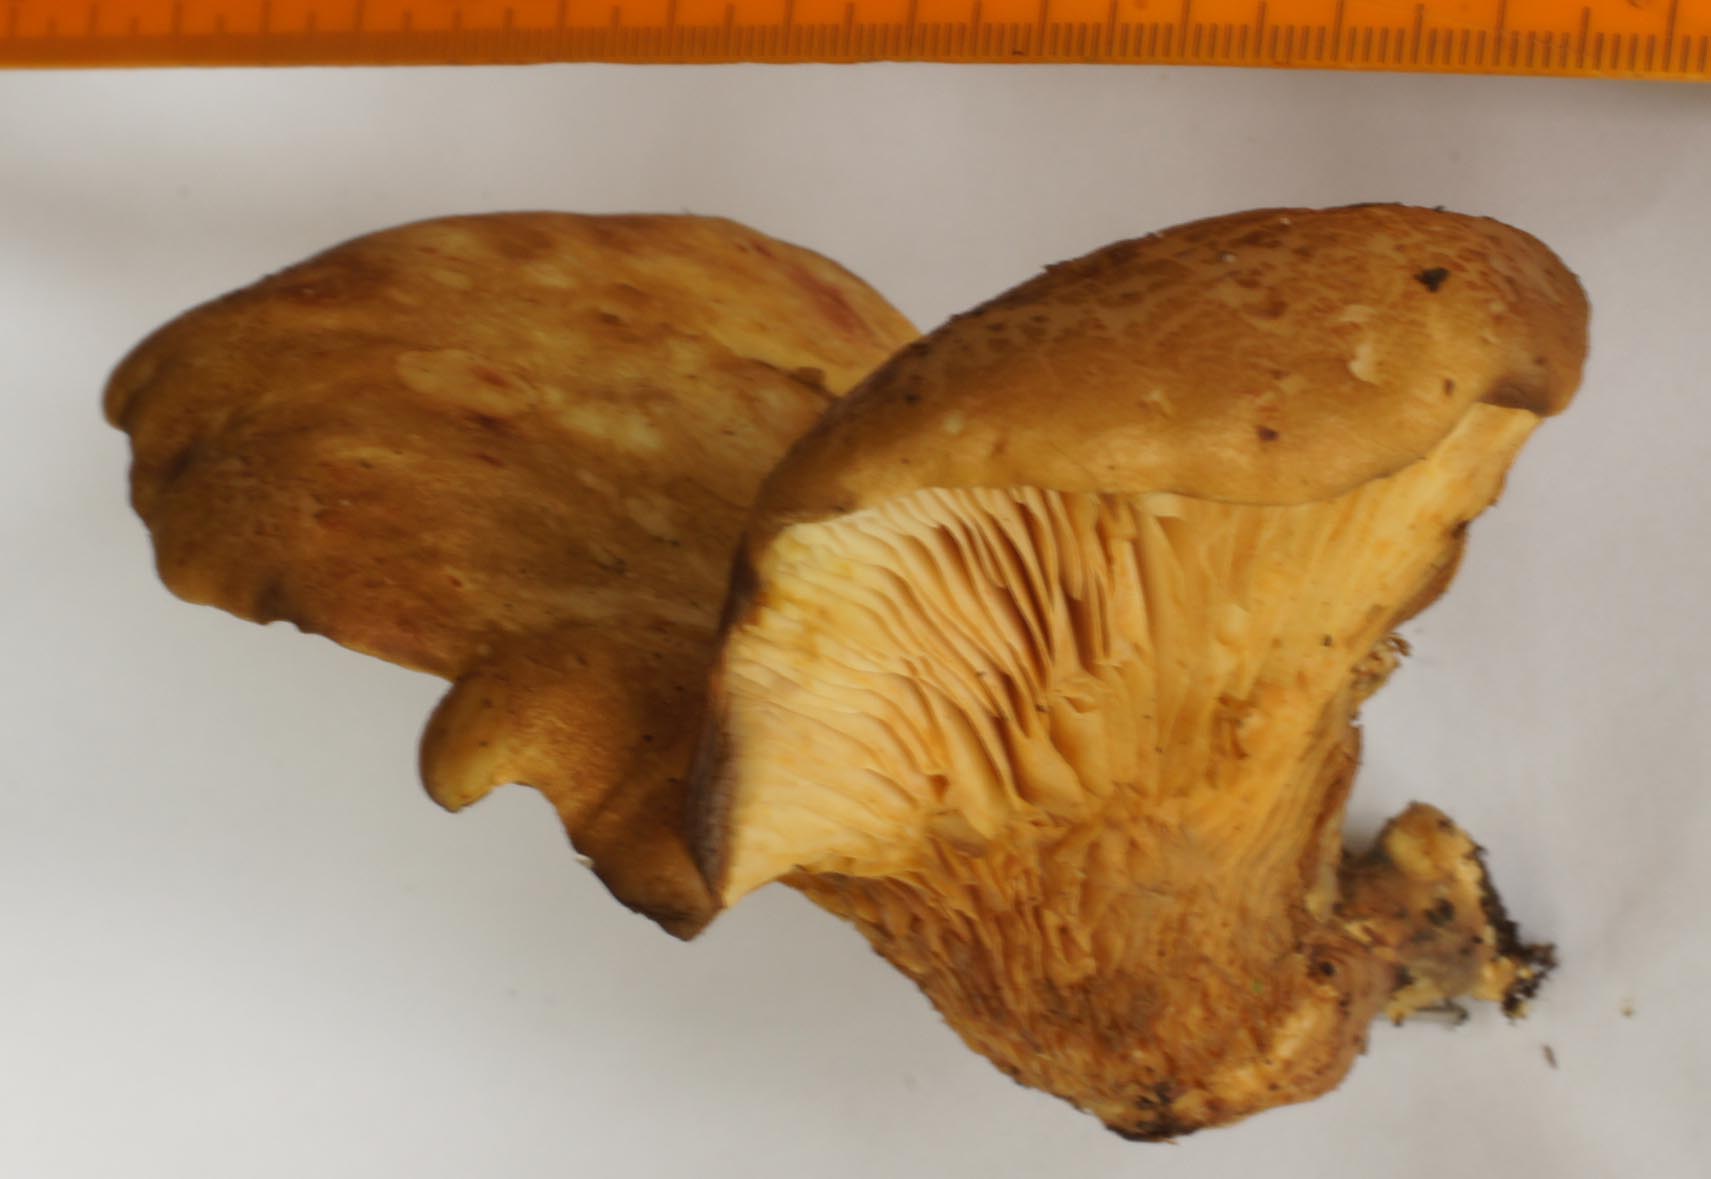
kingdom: Fungi
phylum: Basidiomycota
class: Agaricomycetes
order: Boletales
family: Tapinellaceae
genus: Tapinella
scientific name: Tapinella panuoides
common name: tømmer-viftesvamp
